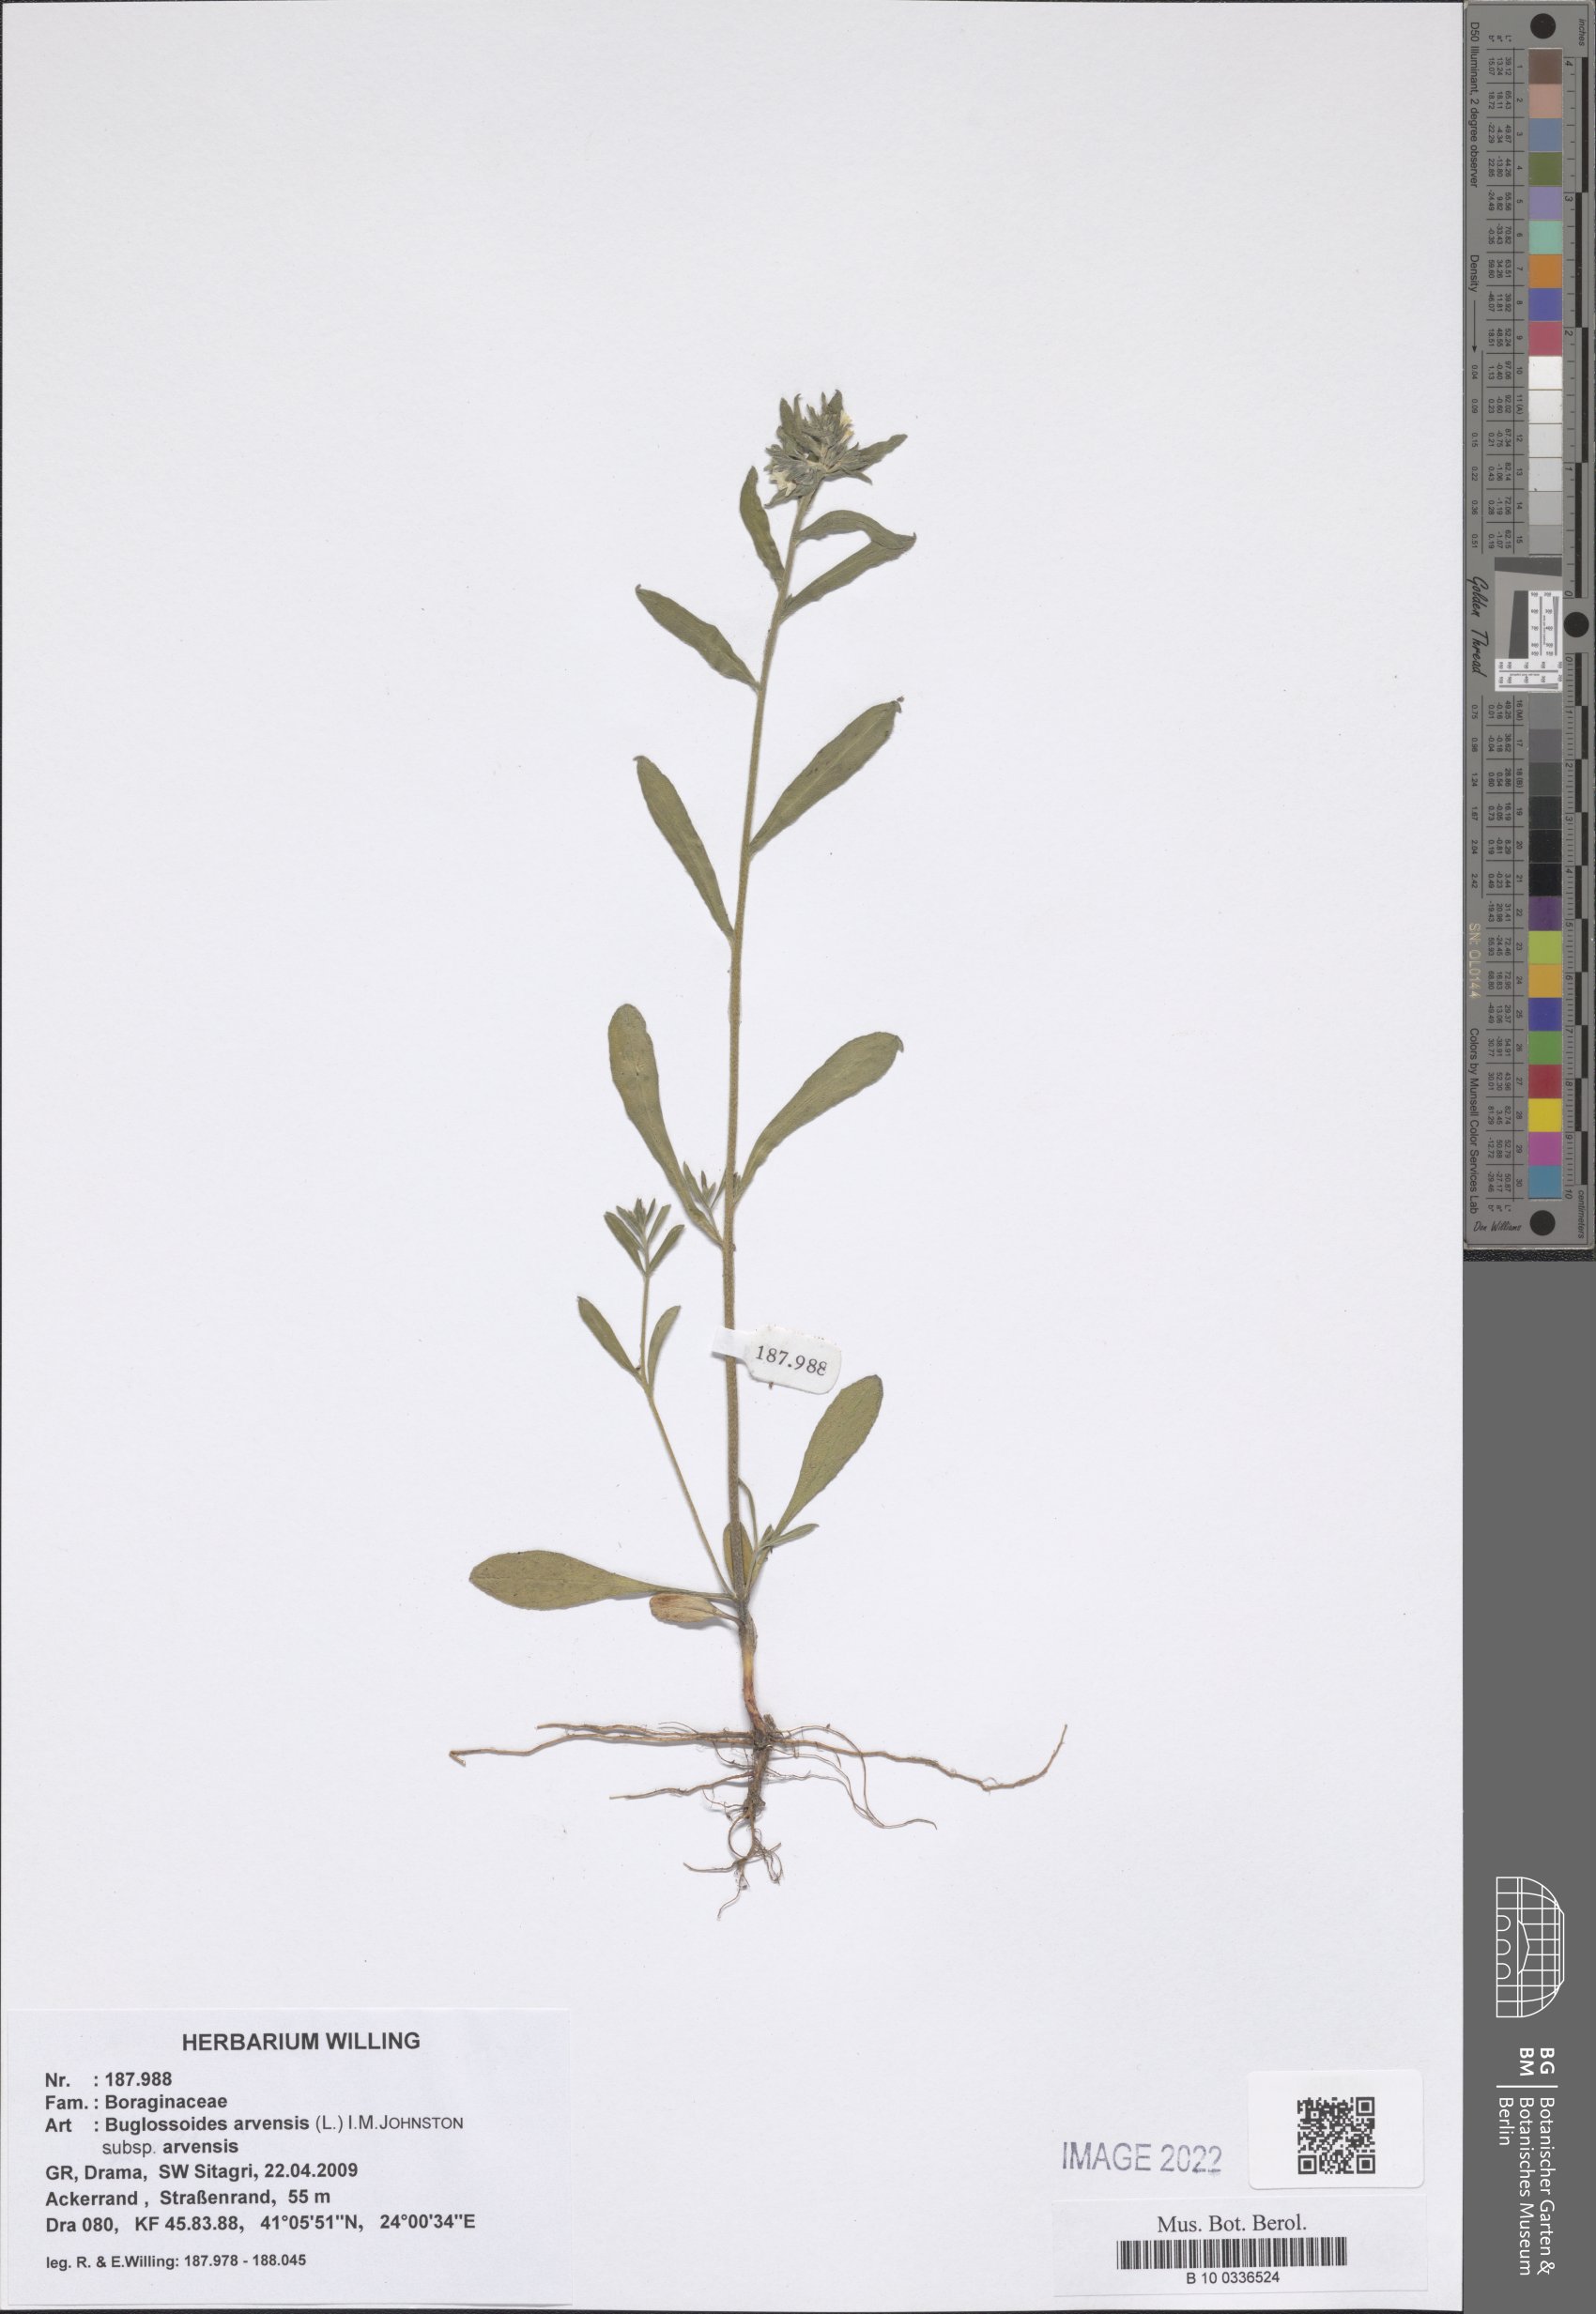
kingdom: Plantae
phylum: Tracheophyta
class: Magnoliopsida
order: Boraginales
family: Boraginaceae
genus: Buglossoides
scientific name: Buglossoides arvensis
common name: Corn gromwell
